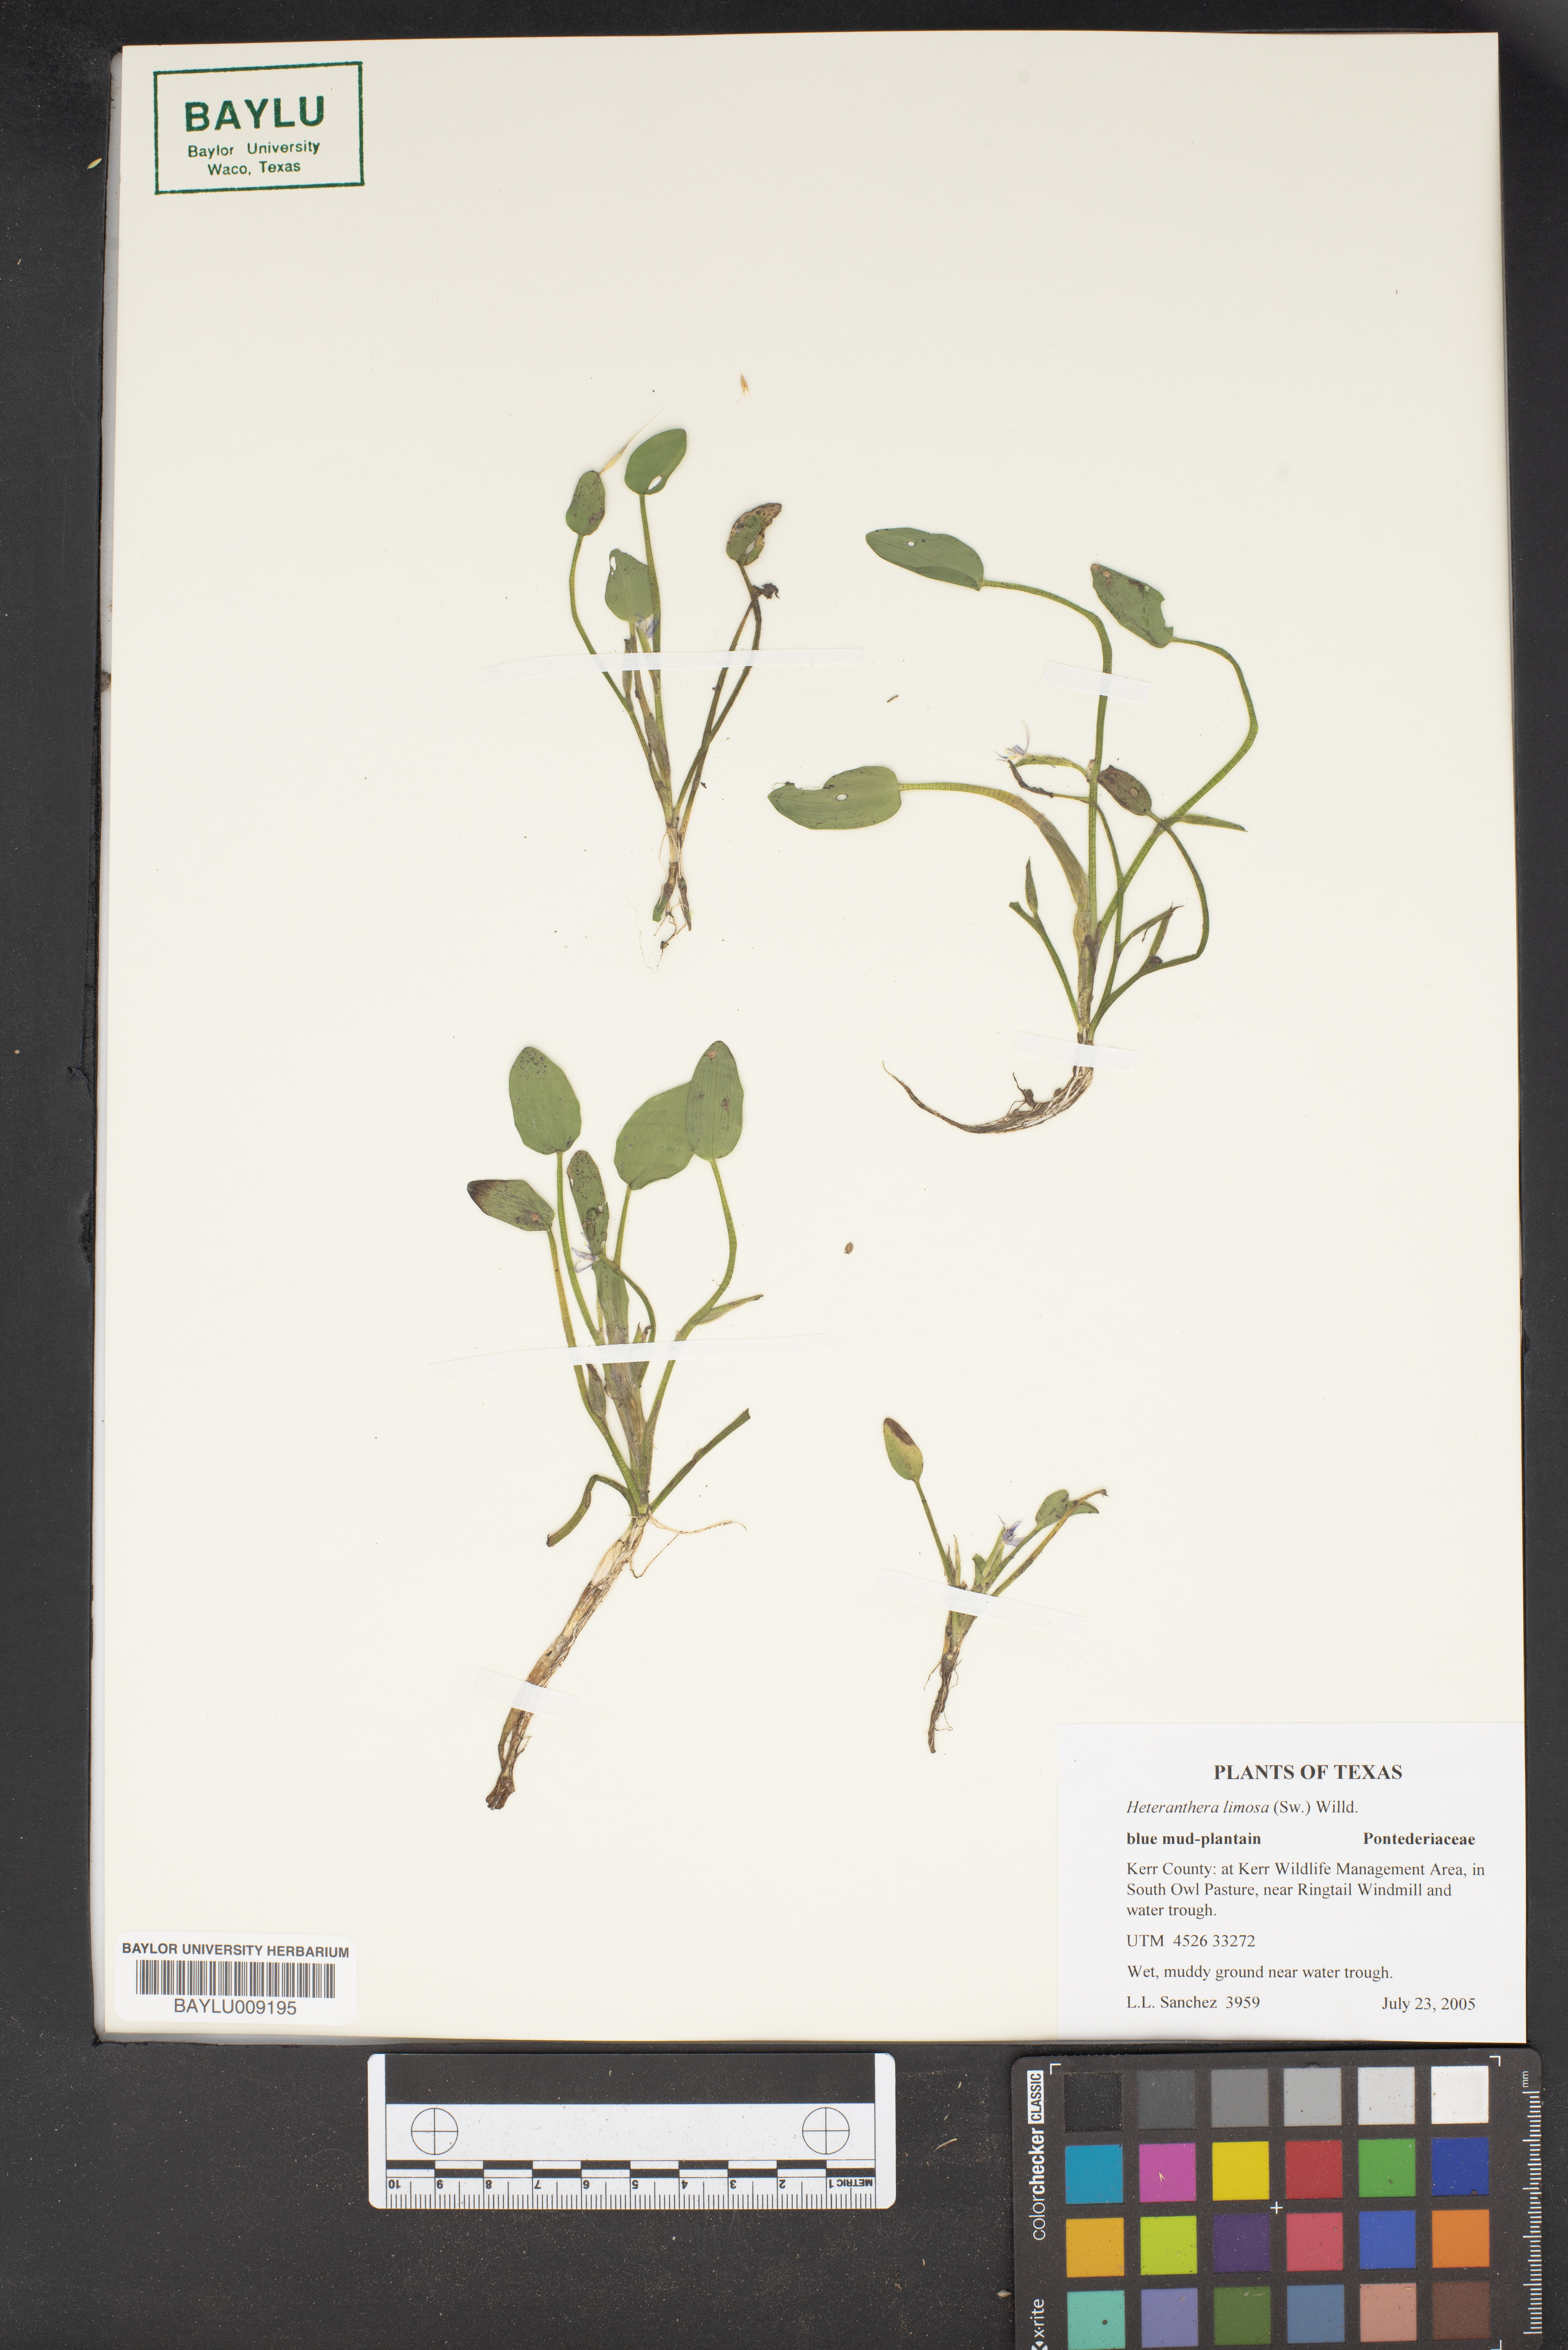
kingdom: Plantae
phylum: Tracheophyta
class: Liliopsida
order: Commelinales
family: Pontederiaceae
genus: Heteranthera
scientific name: Heteranthera limosa
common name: Blue mud-plantain
